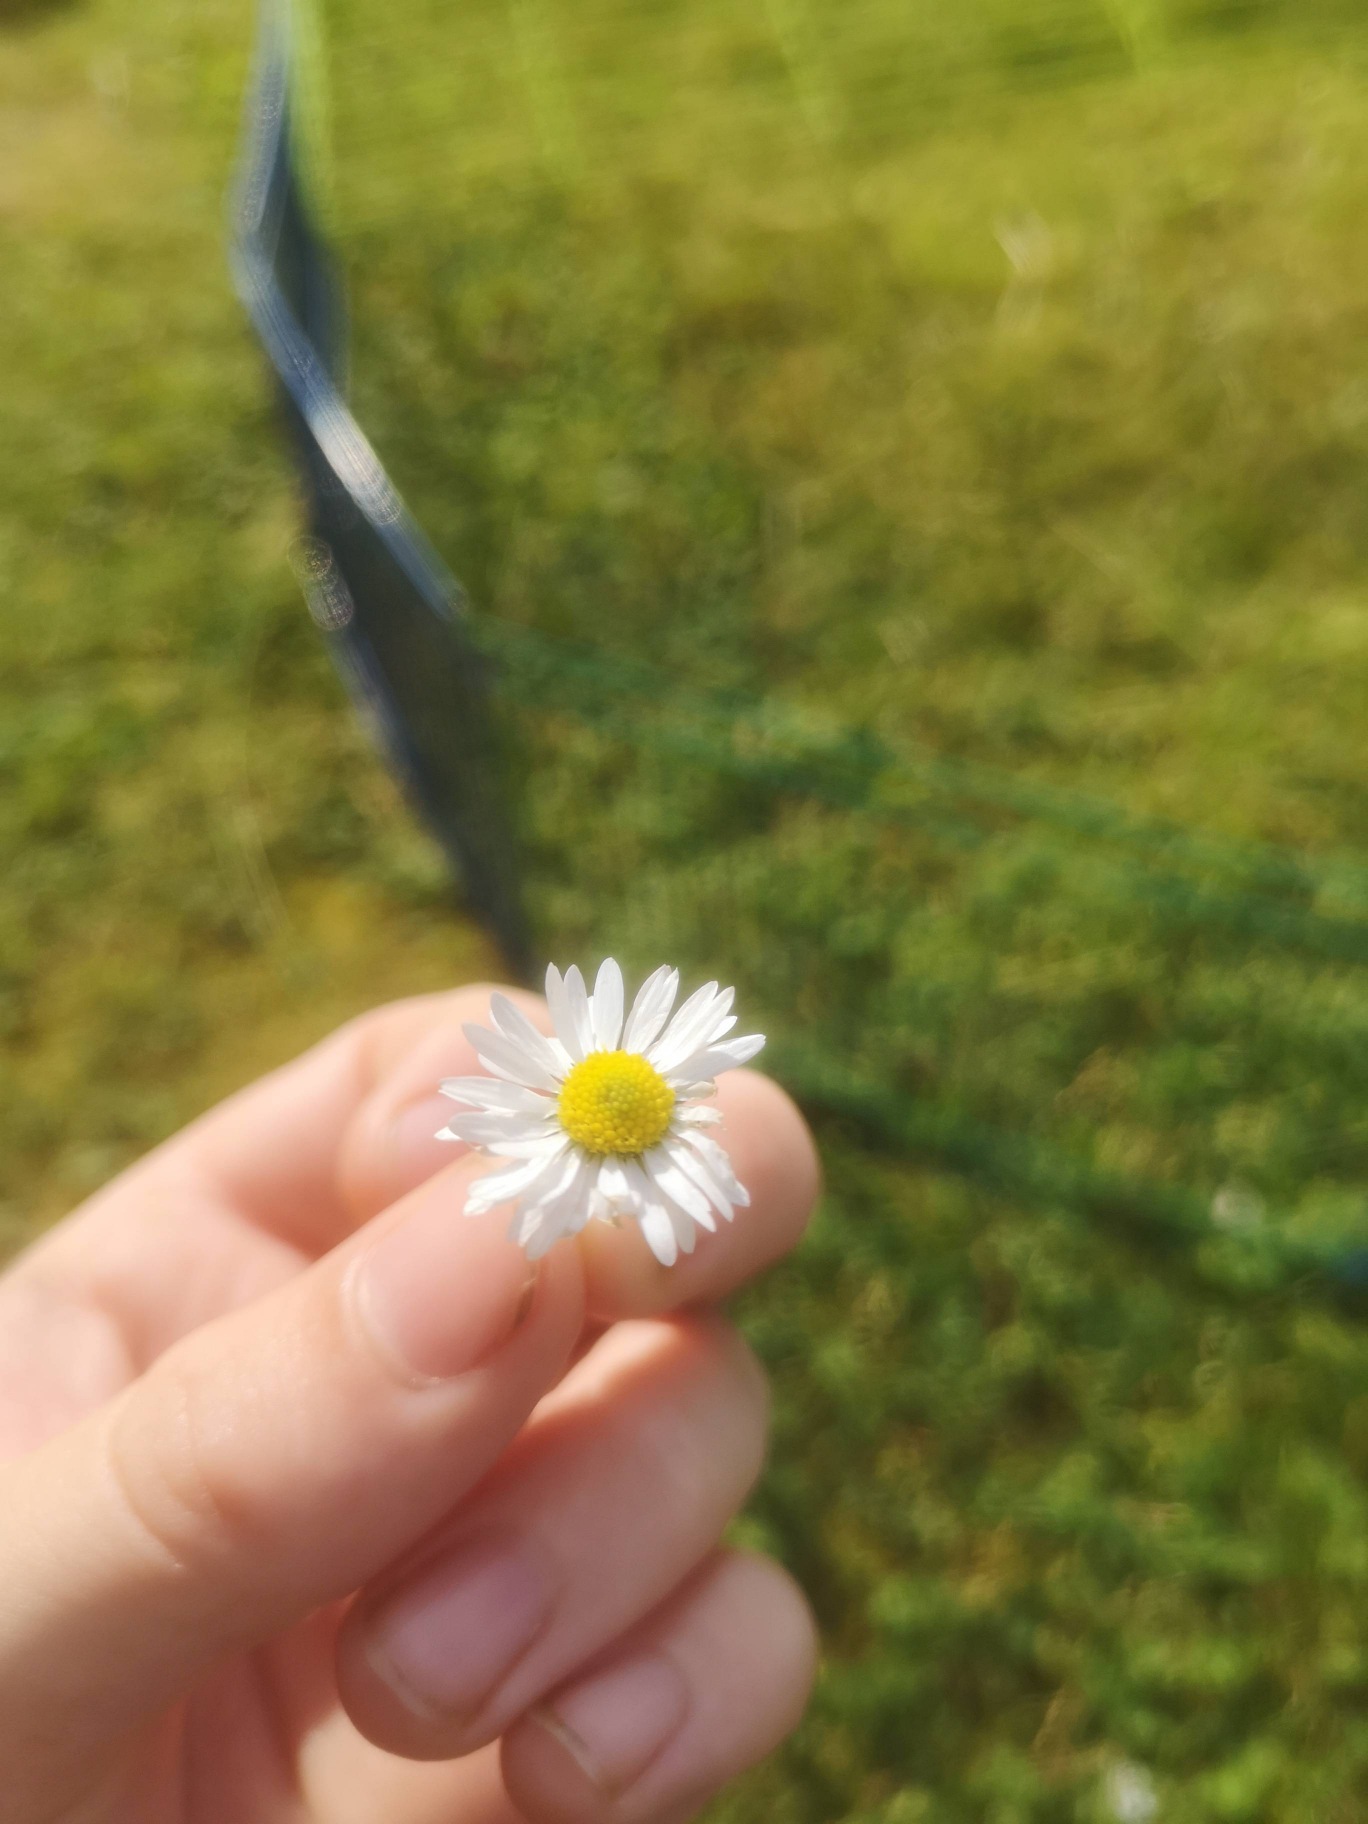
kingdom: Plantae
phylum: Tracheophyta
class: Magnoliopsida
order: Asterales
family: Asteraceae
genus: Bellis
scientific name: Bellis perennis
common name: Tusindfryd
